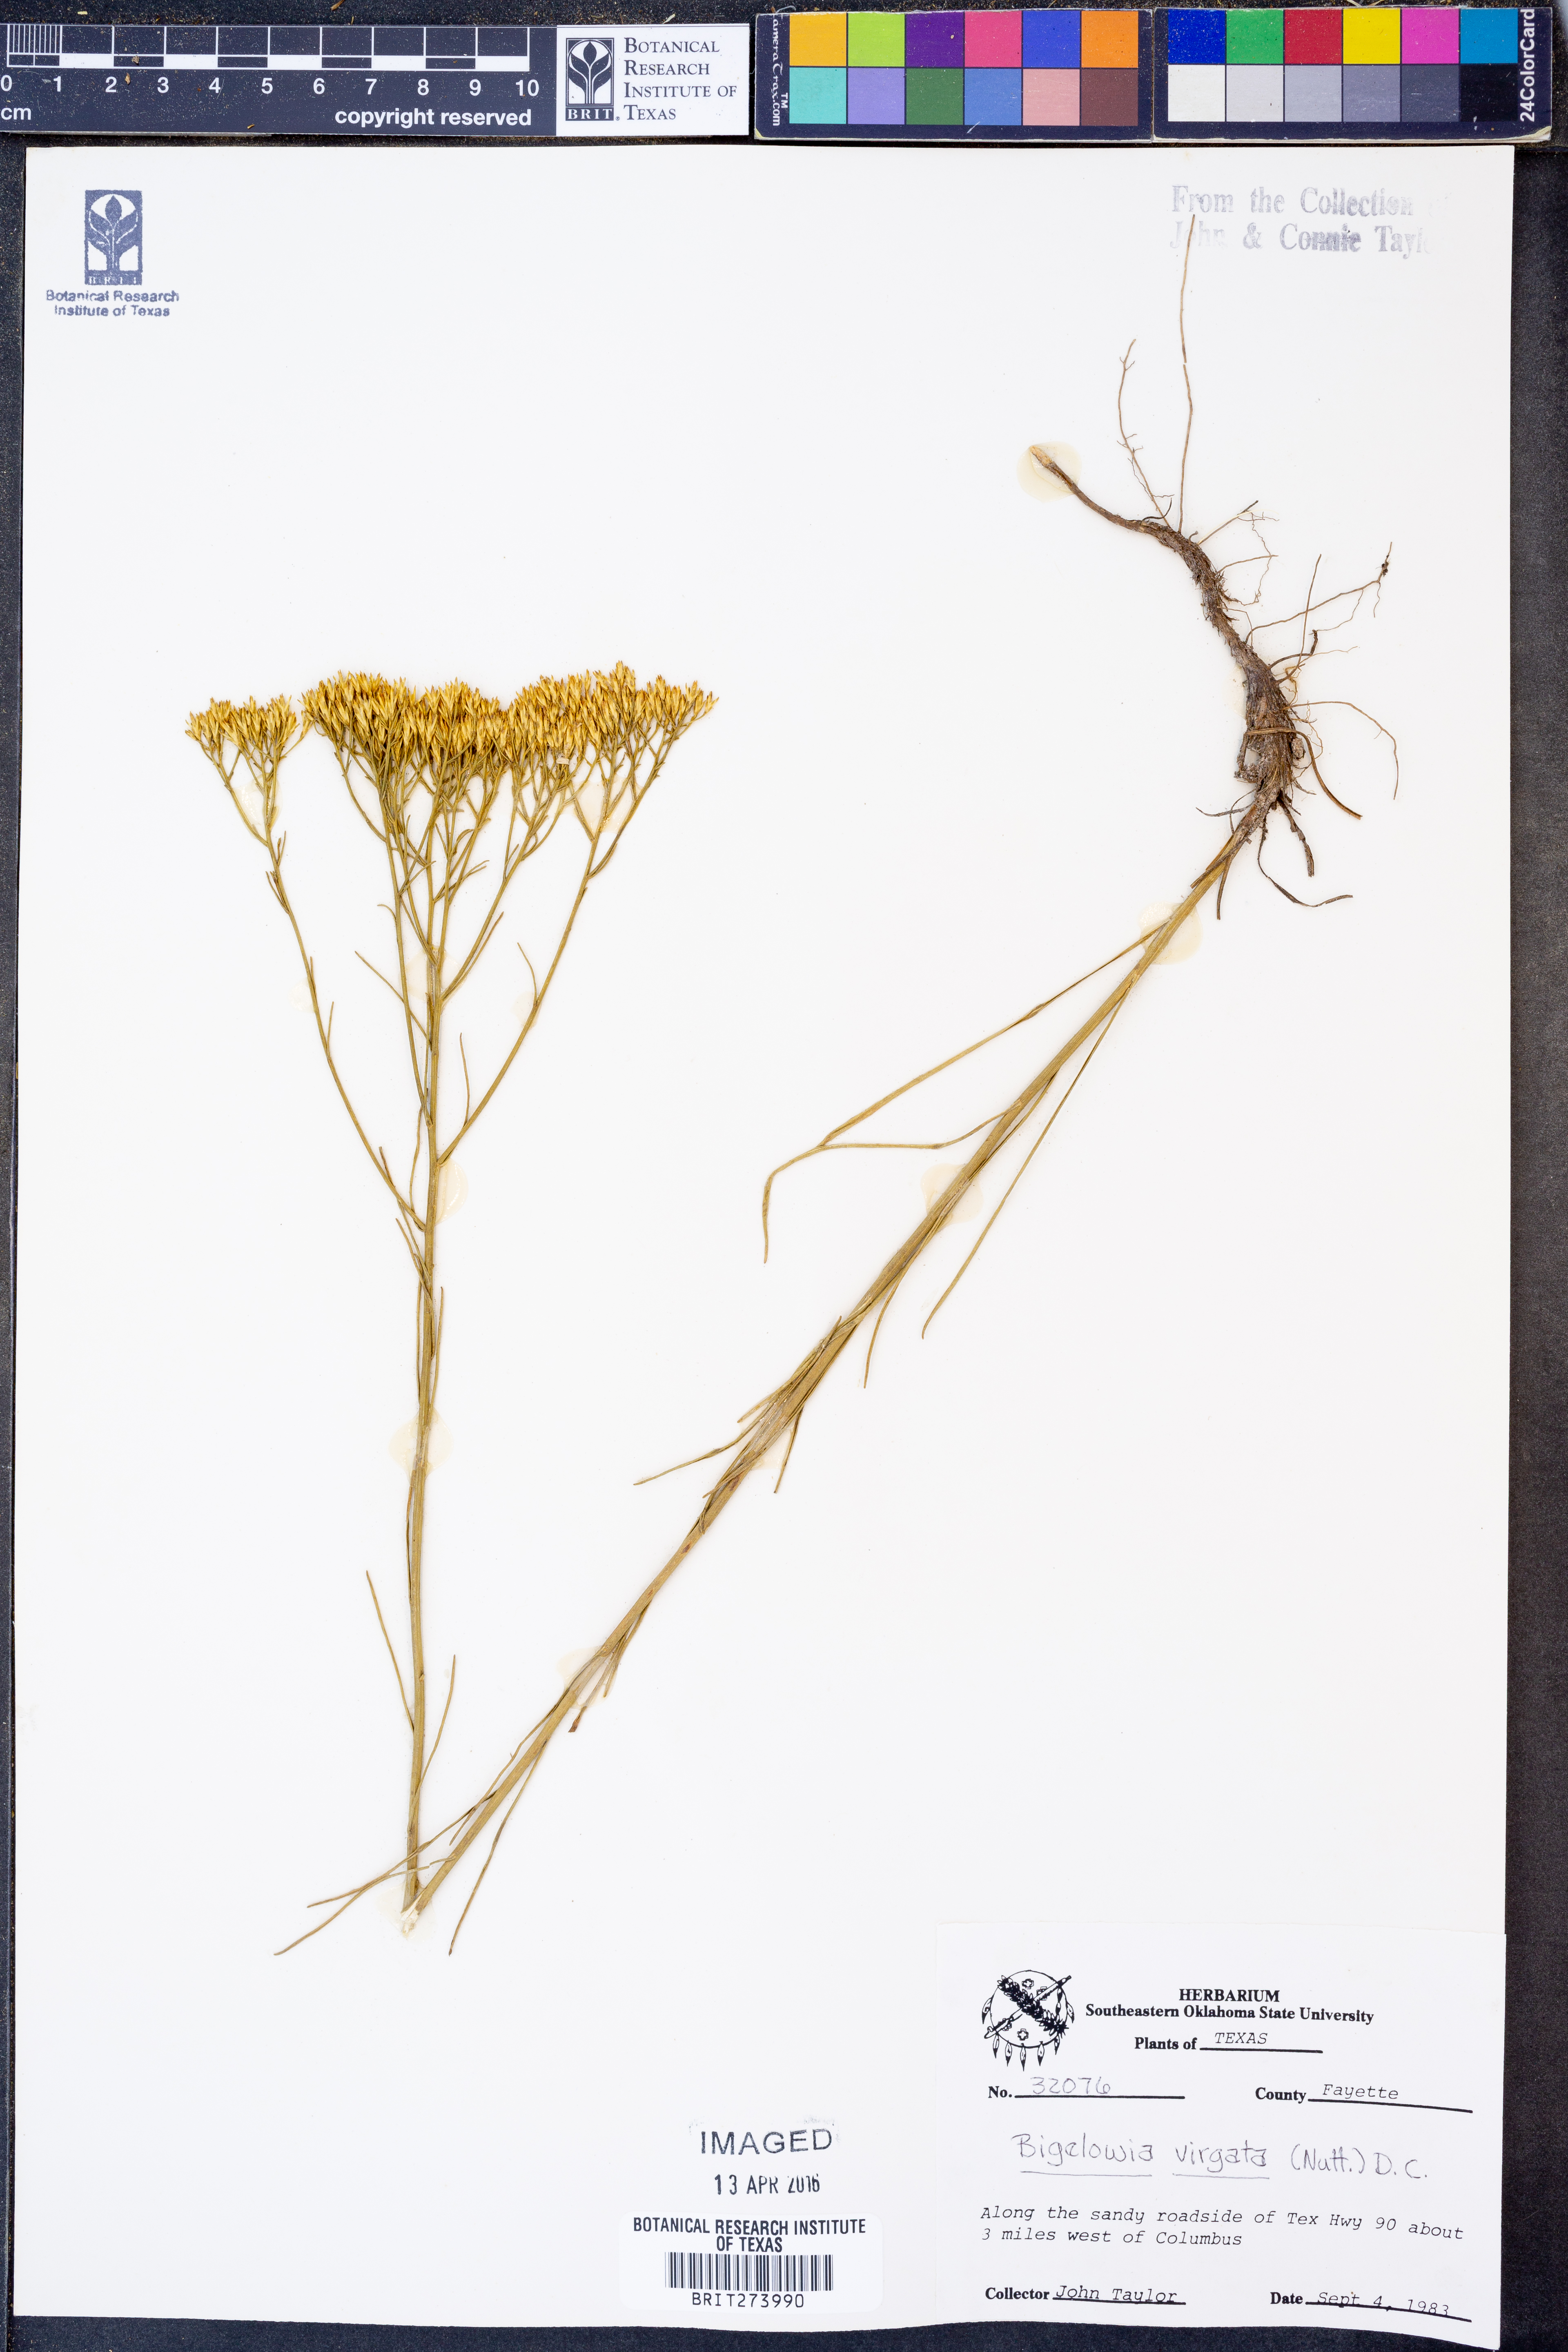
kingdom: Plantae
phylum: Tracheophyta
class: Magnoliopsida
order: Asterales
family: Asteraceae
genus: Bigelowia
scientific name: Bigelowia nudata
